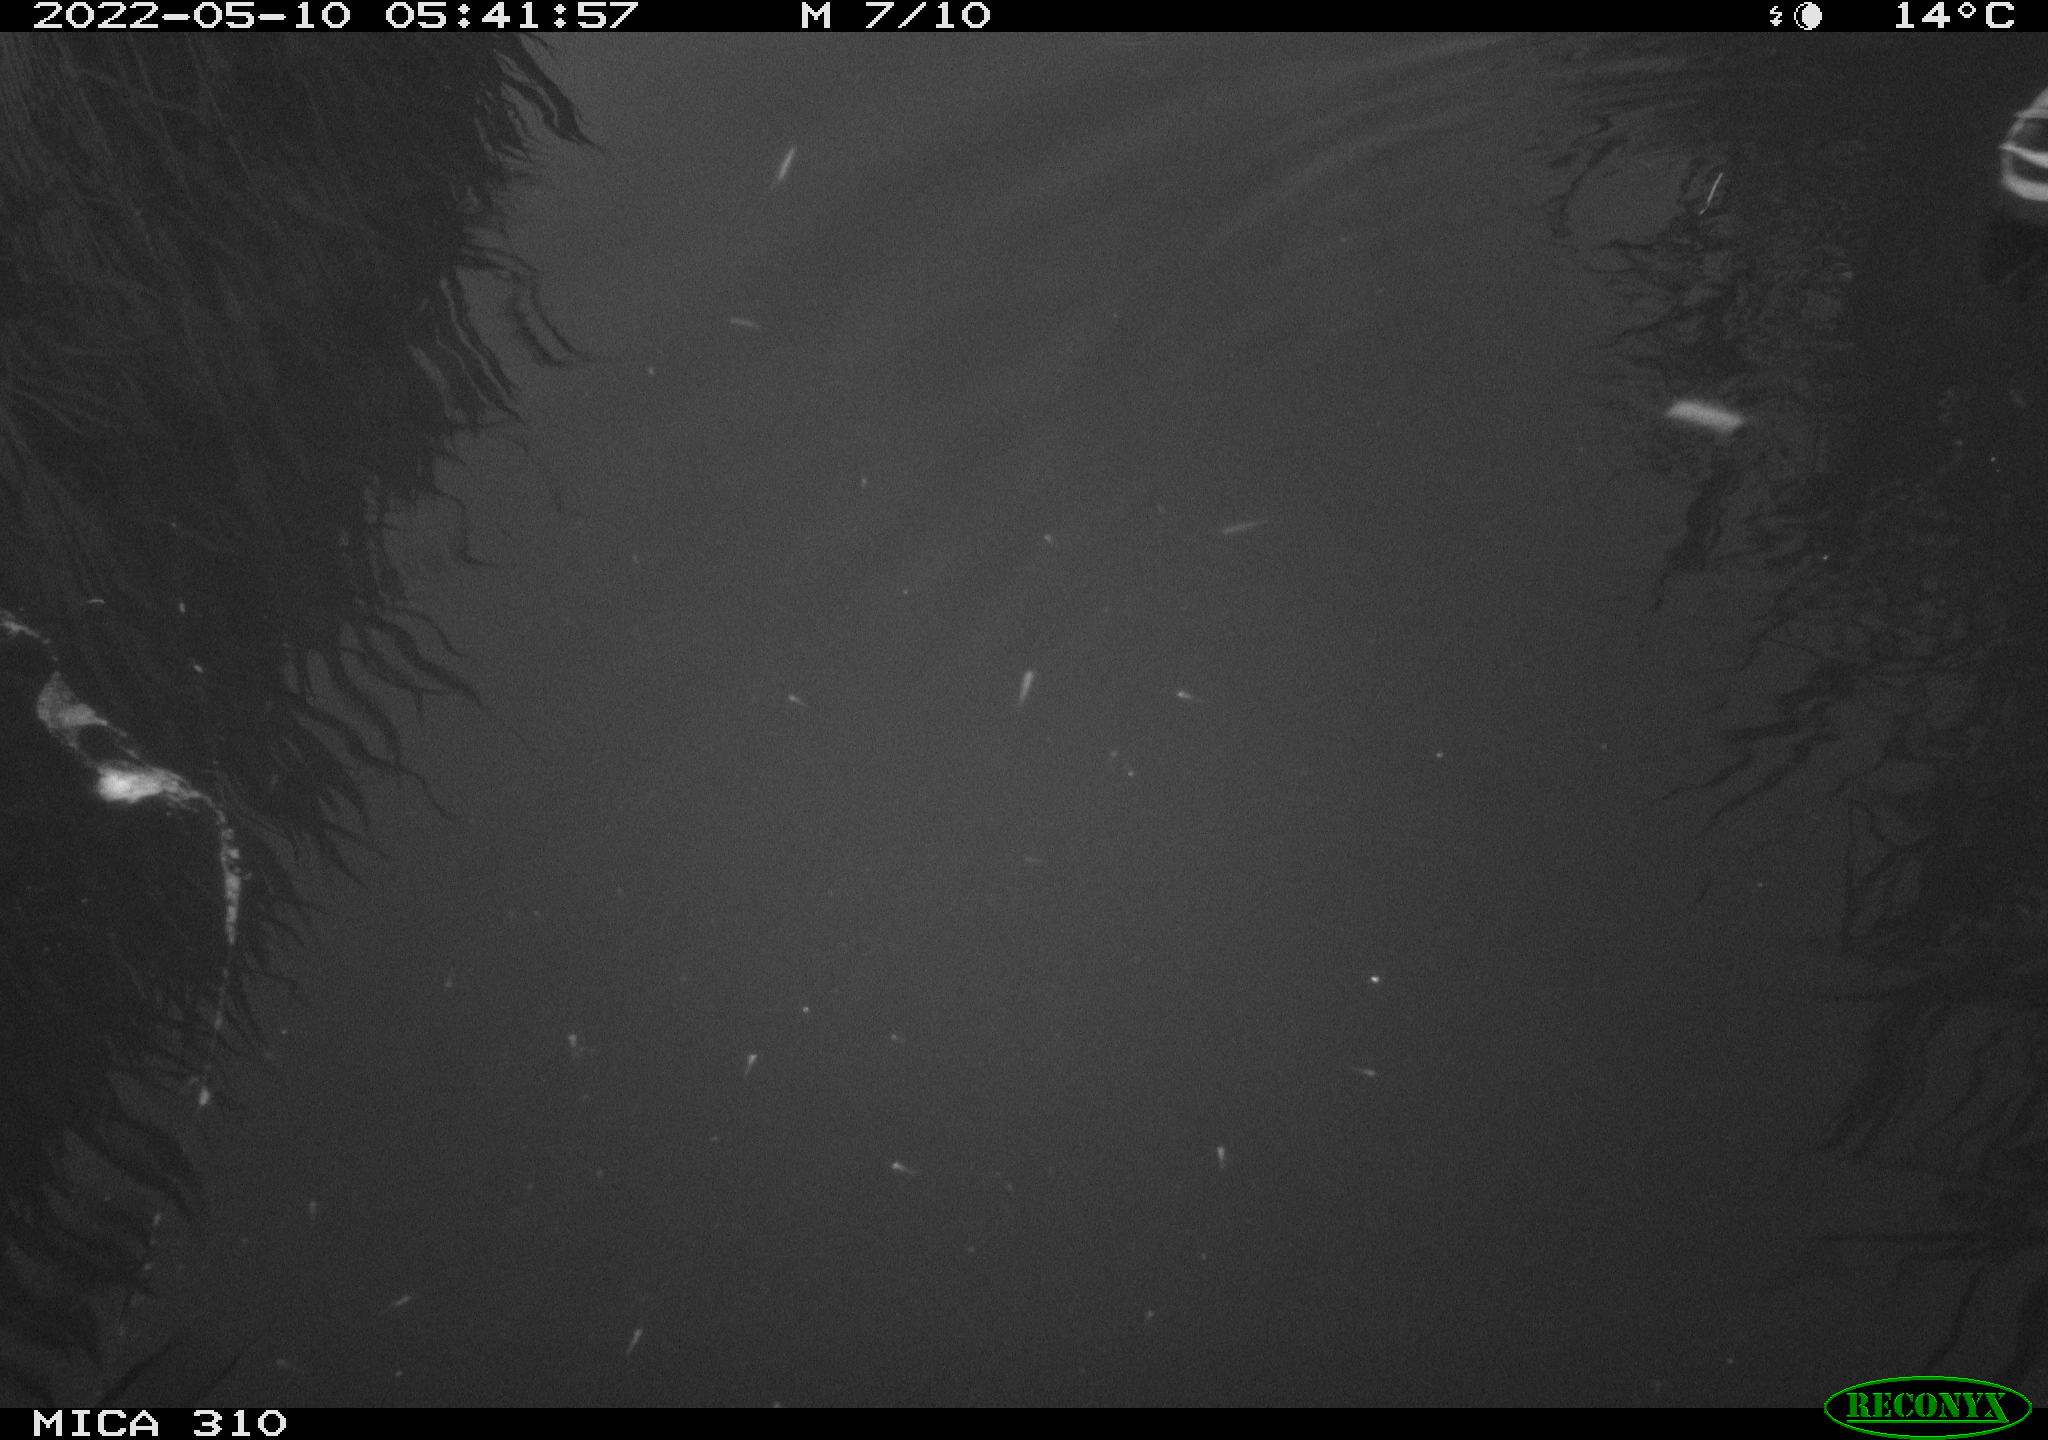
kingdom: Animalia
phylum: Chordata
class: Aves
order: Anseriformes
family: Anatidae
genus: Anas
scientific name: Anas platyrhynchos
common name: Mallard
